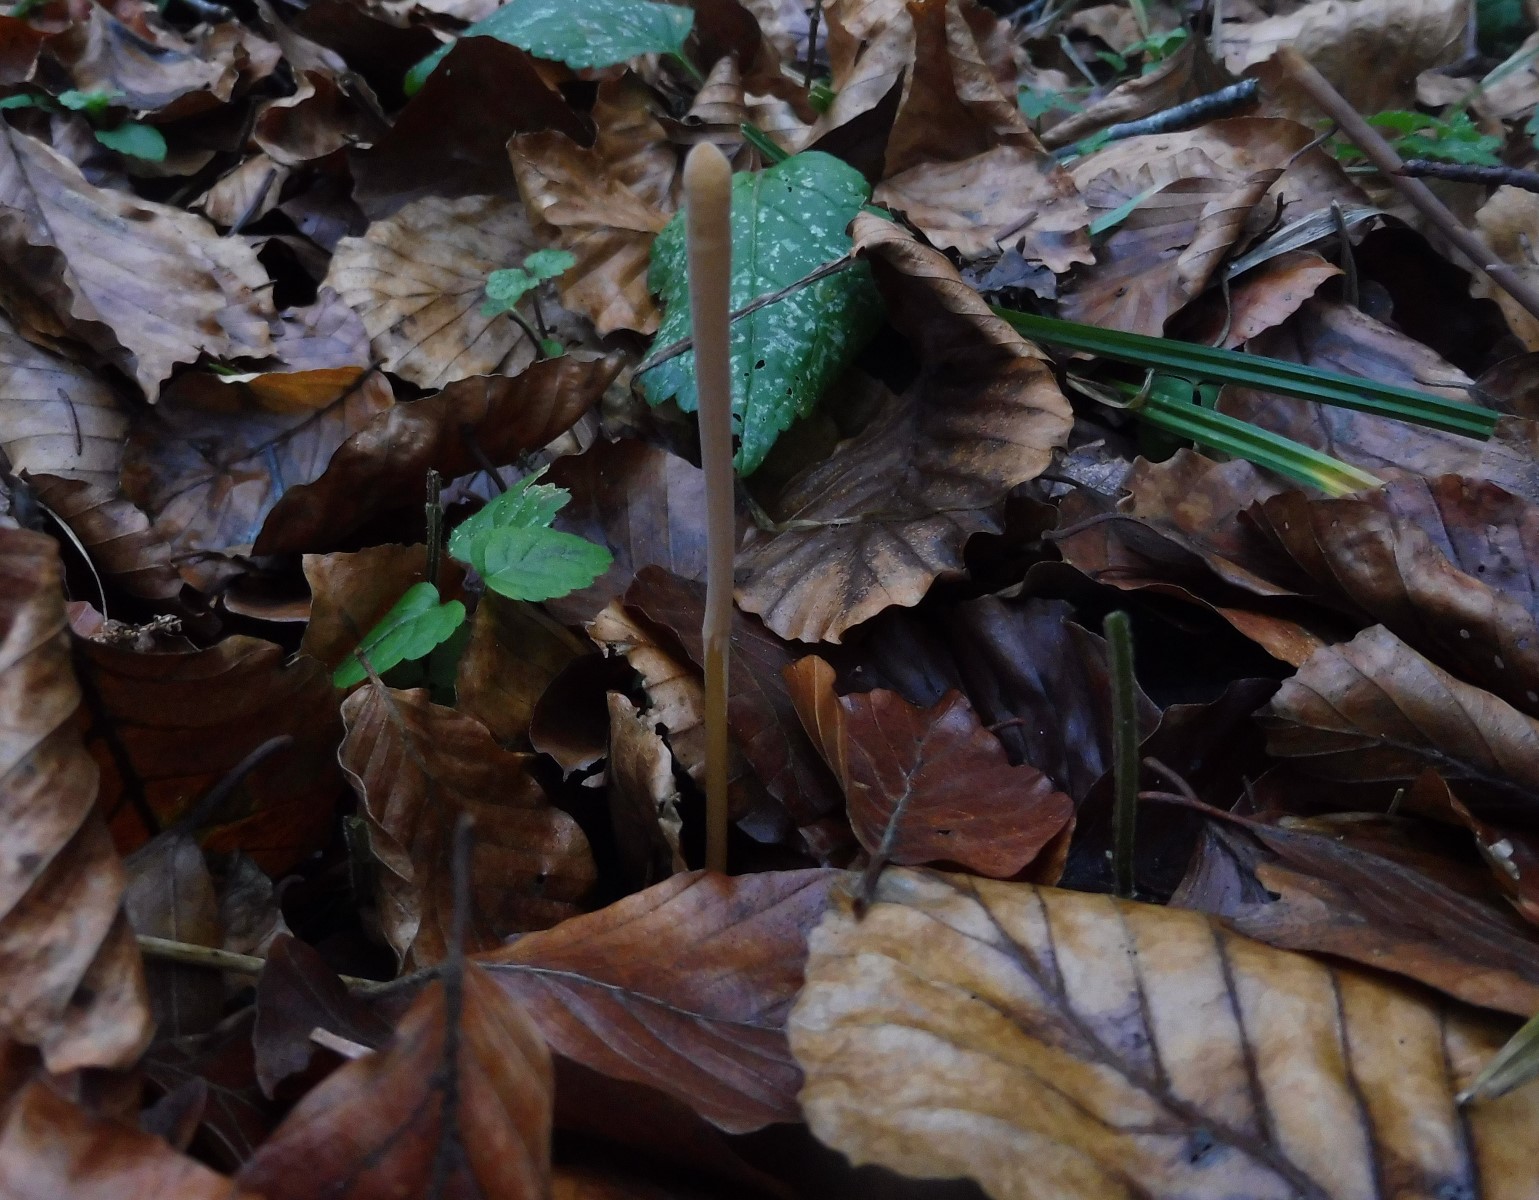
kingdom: Fungi
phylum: Basidiomycota
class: Agaricomycetes
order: Agaricales
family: Typhulaceae
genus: Typhula
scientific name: Typhula fistulosa
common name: pibet rørkølle
